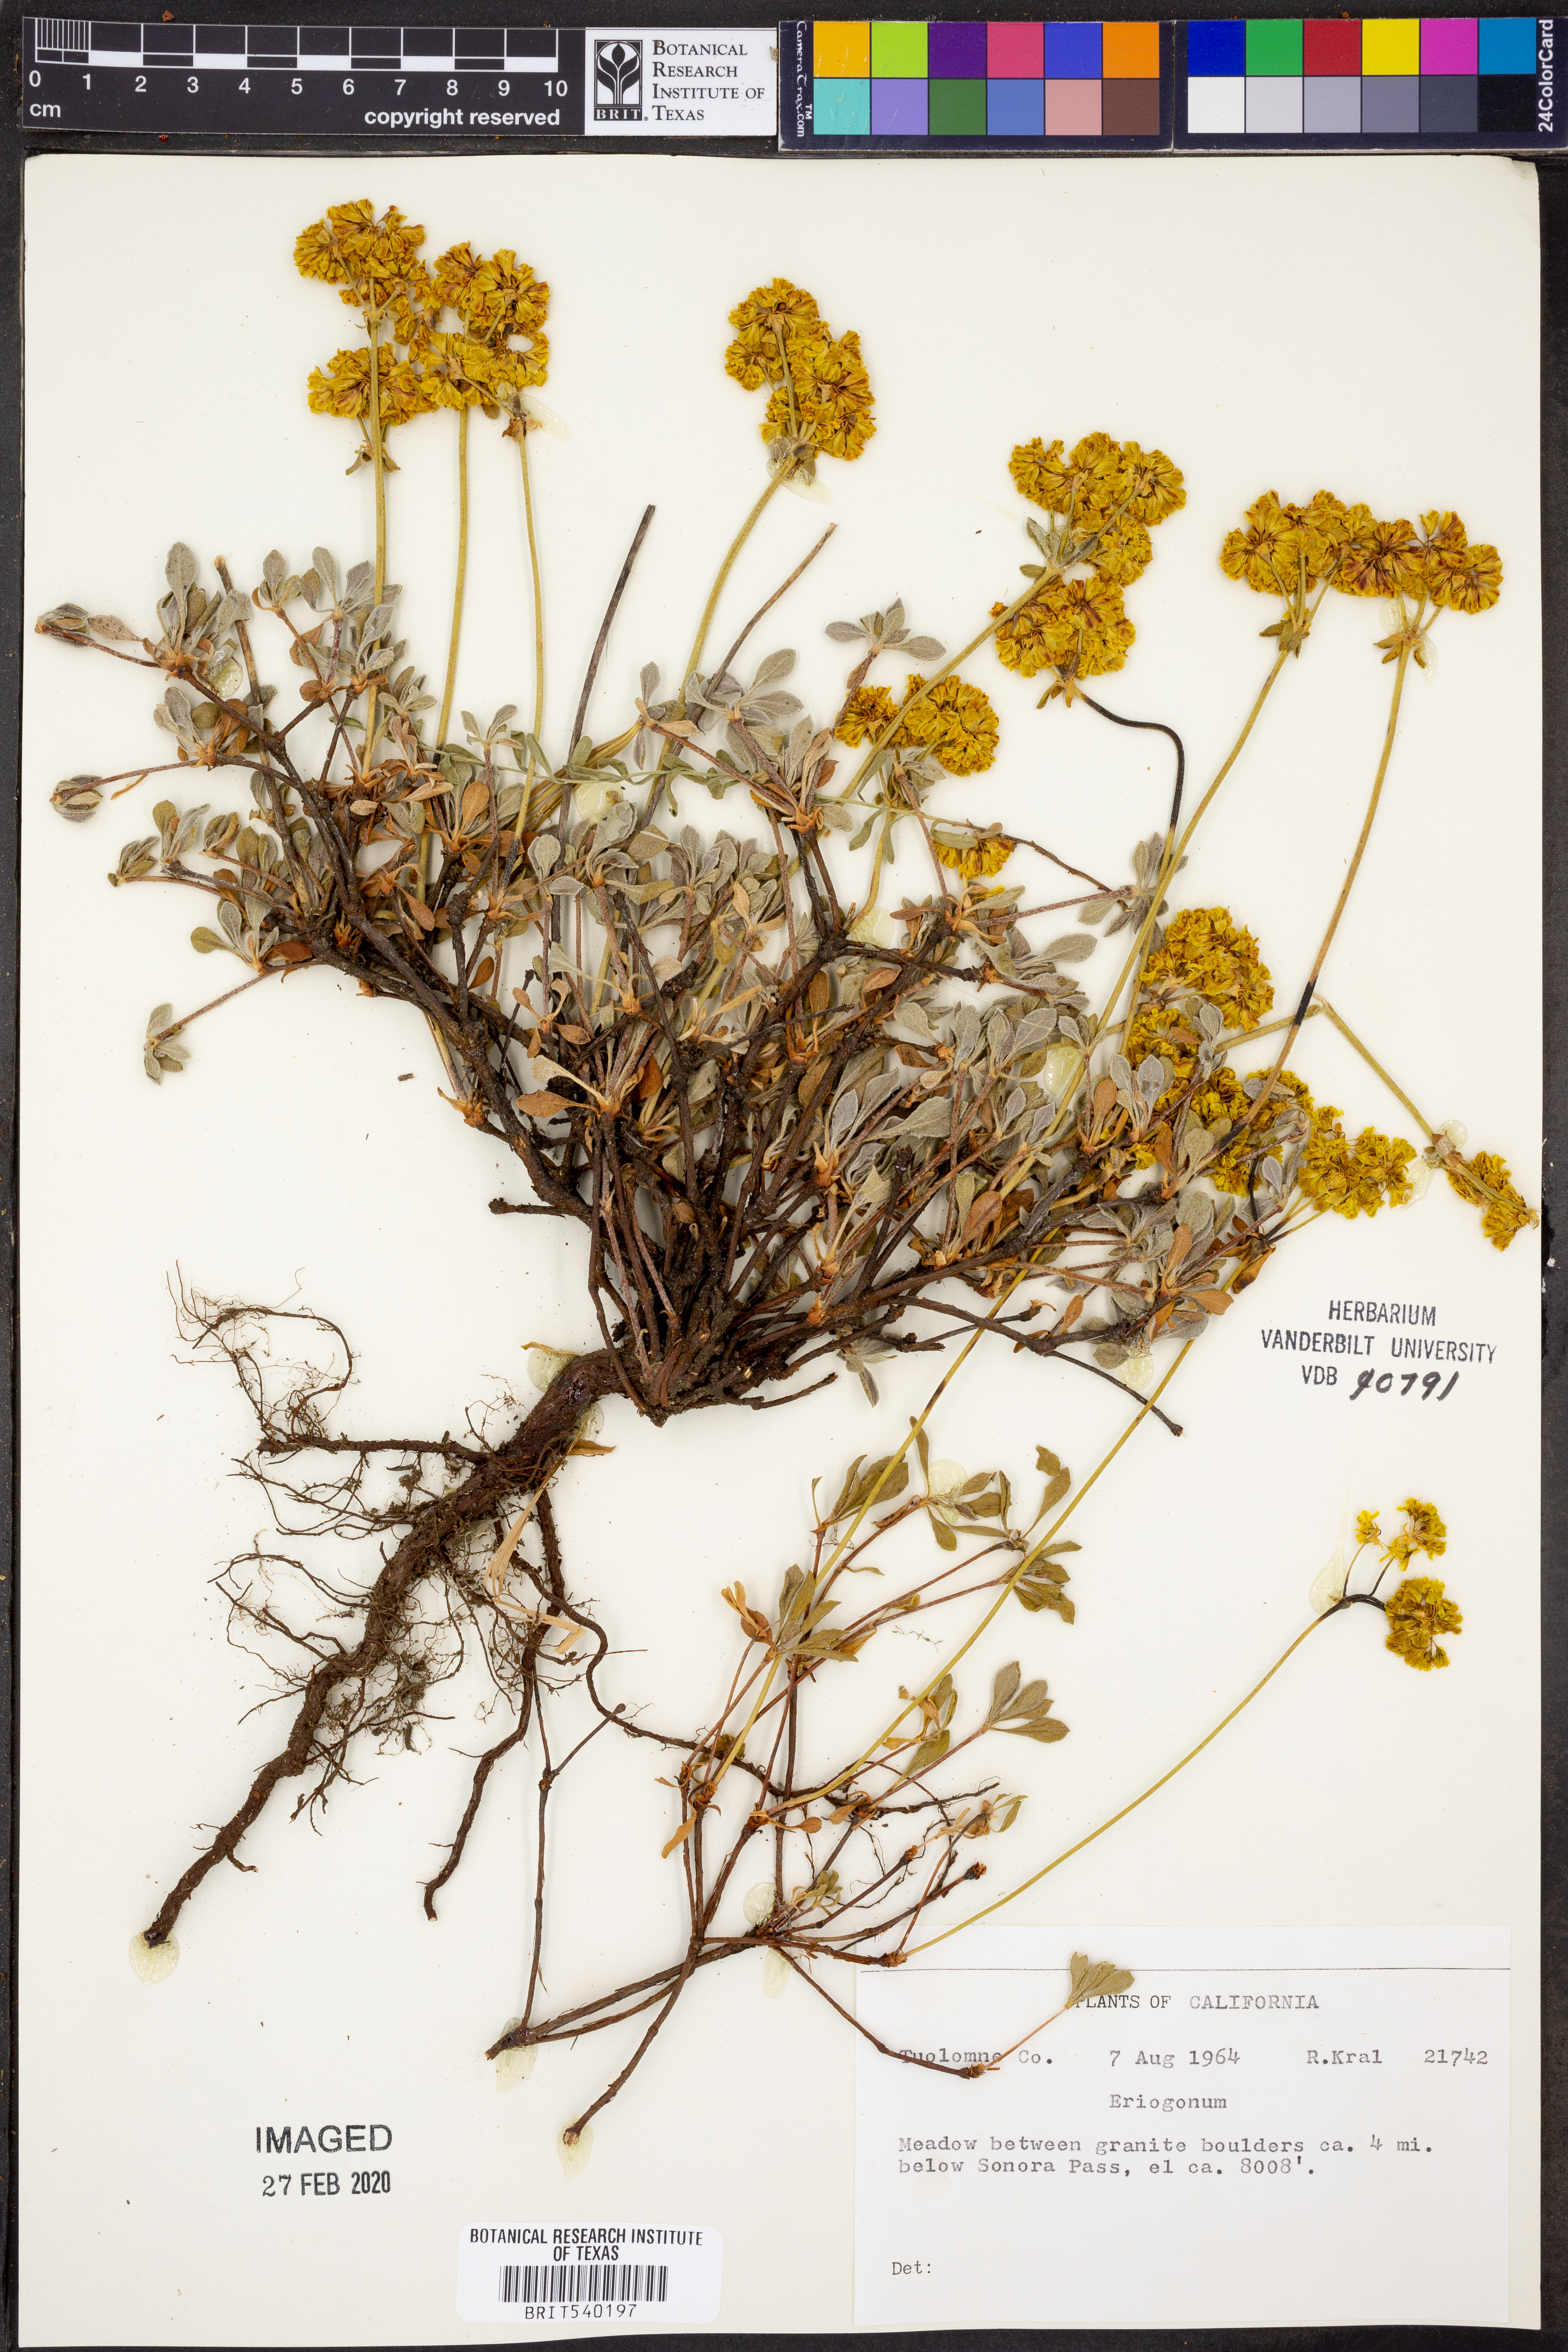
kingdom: Plantae
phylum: Tracheophyta
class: Magnoliopsida
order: Caryophyllales
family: Polygonaceae
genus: Eriogonum
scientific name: Eriogonum
